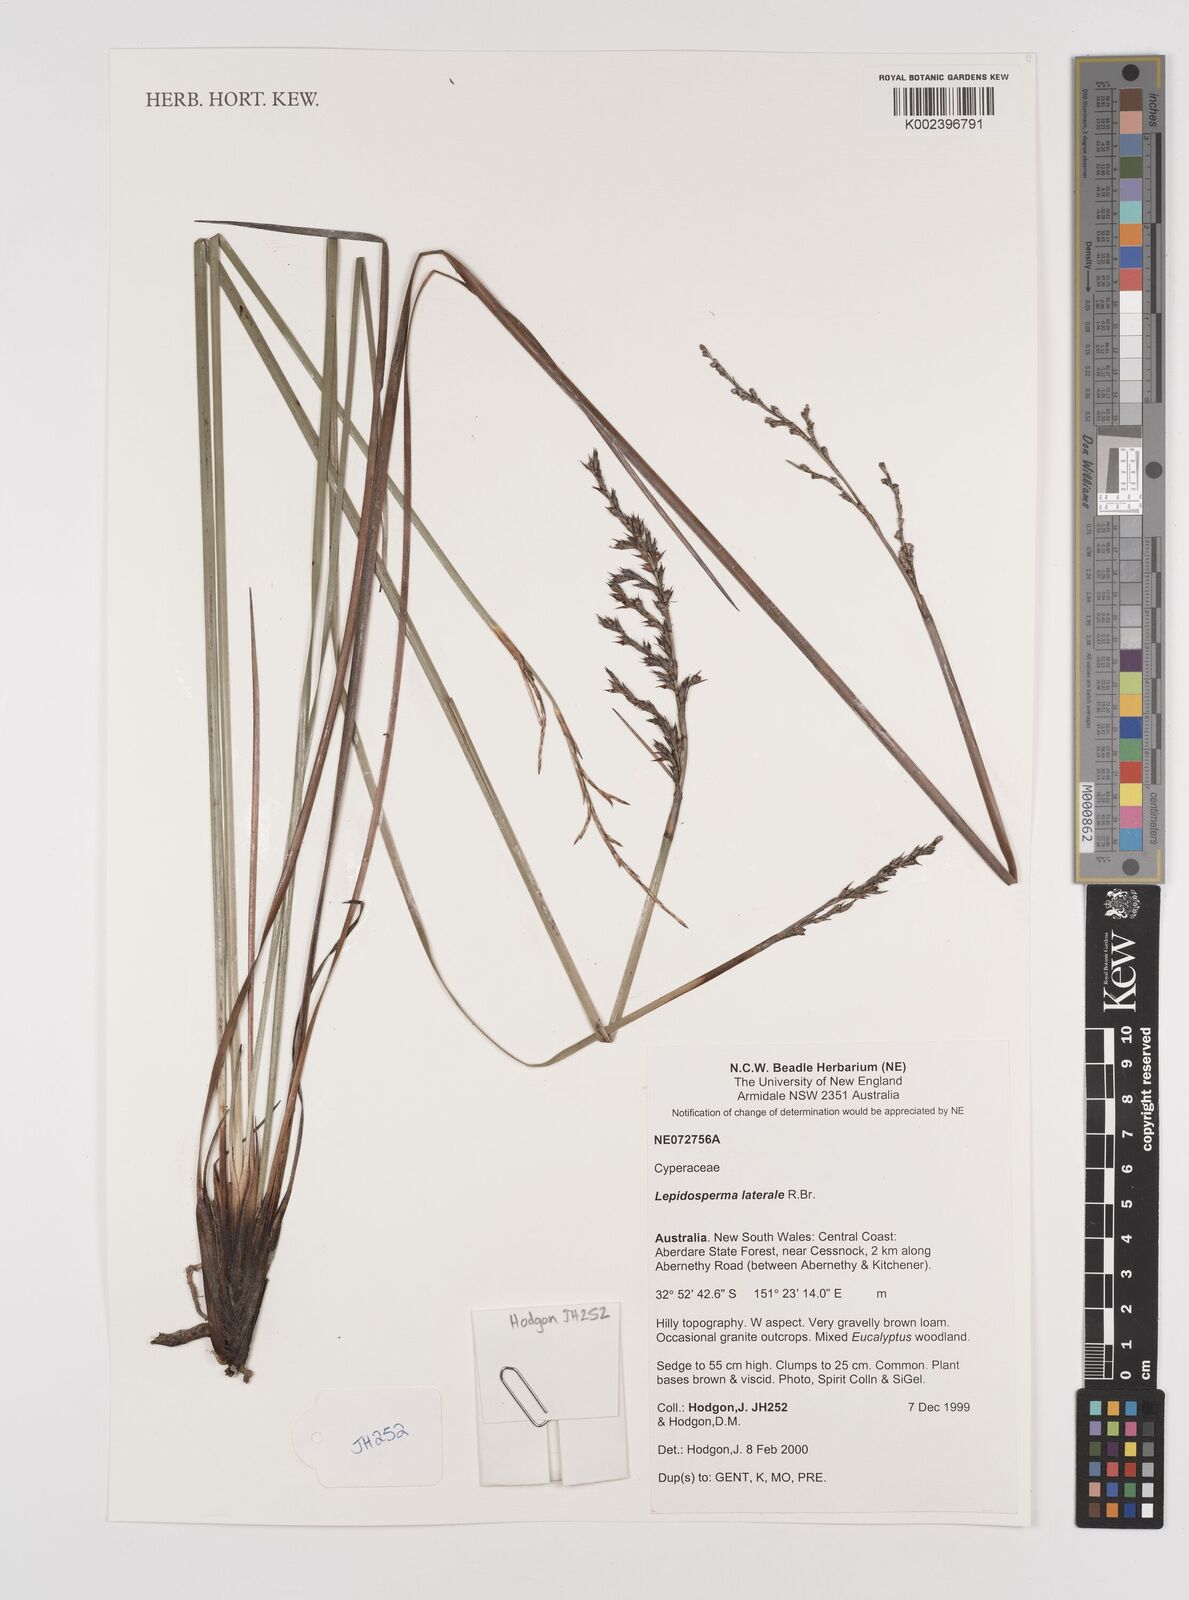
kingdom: Plantae
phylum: Tracheophyta
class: Liliopsida
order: Poales
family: Cyperaceae
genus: Lepidosperma
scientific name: Lepidosperma laterale
